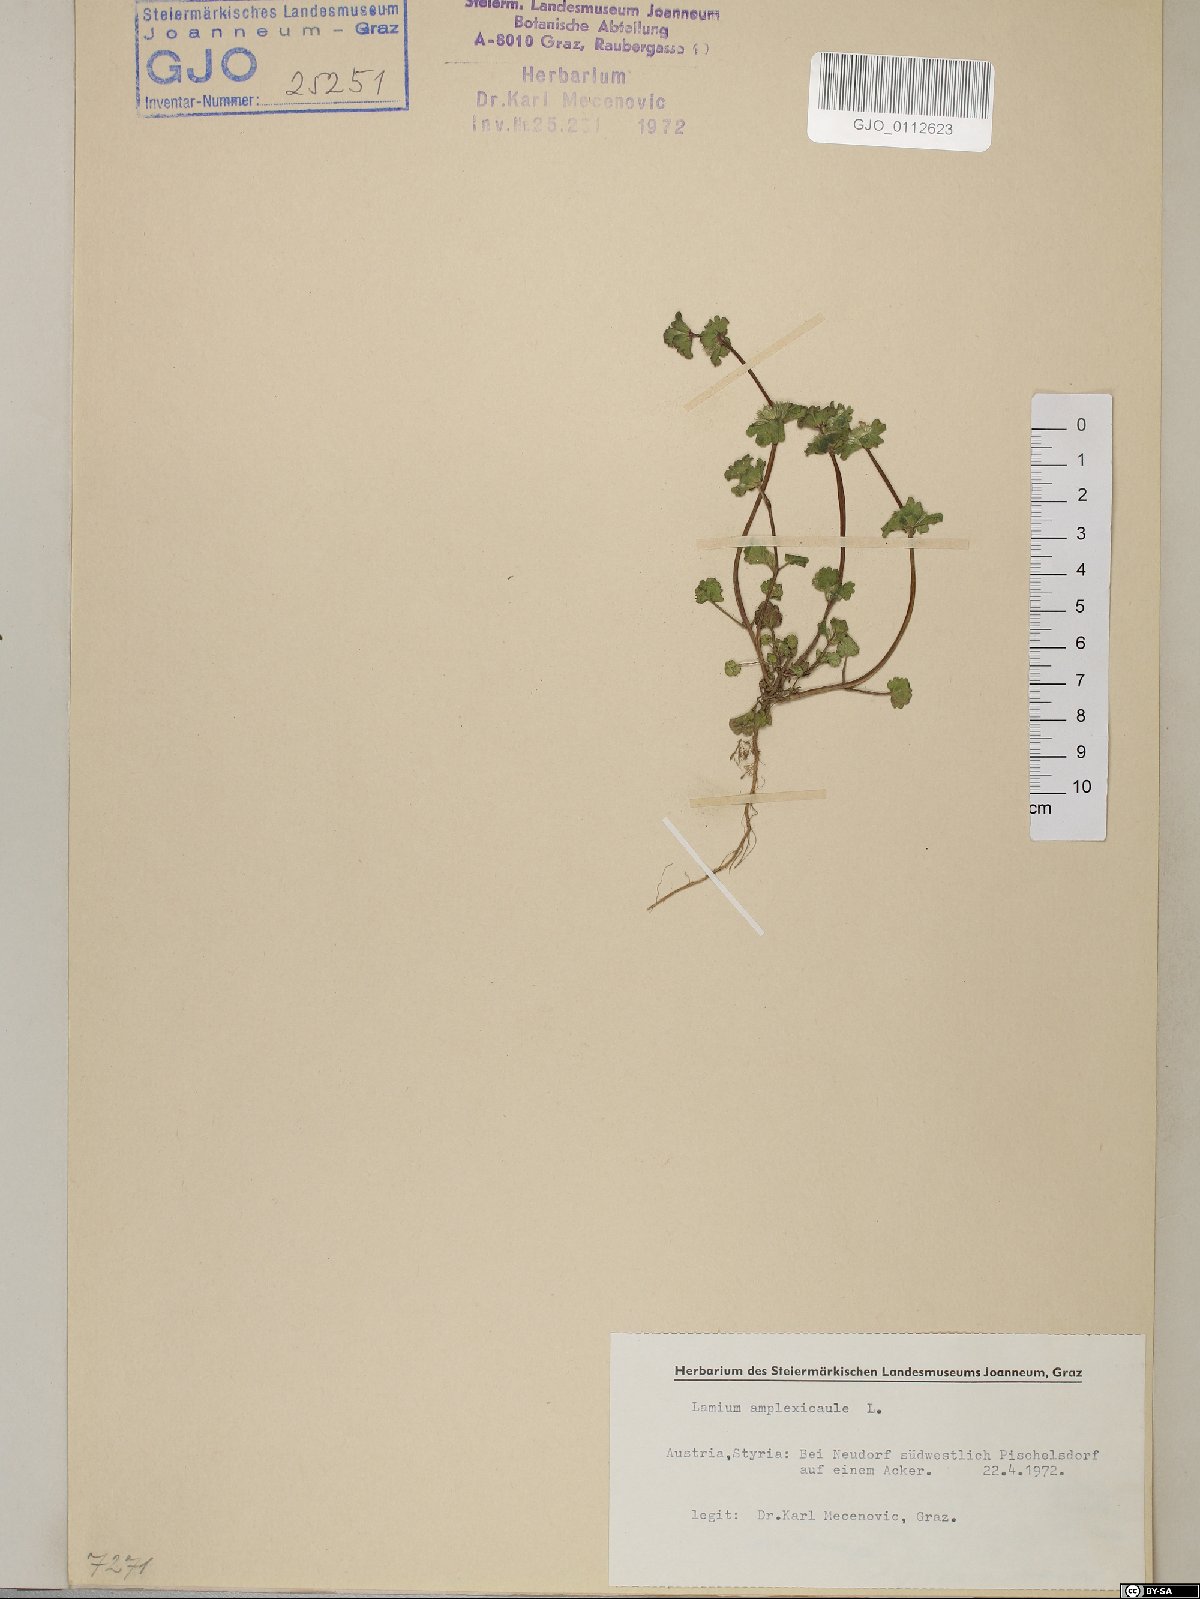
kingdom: Plantae
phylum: Tracheophyta
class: Magnoliopsida
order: Lamiales
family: Lamiaceae
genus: Lamium
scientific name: Lamium amplexicaule
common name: Henbit dead-nettle
